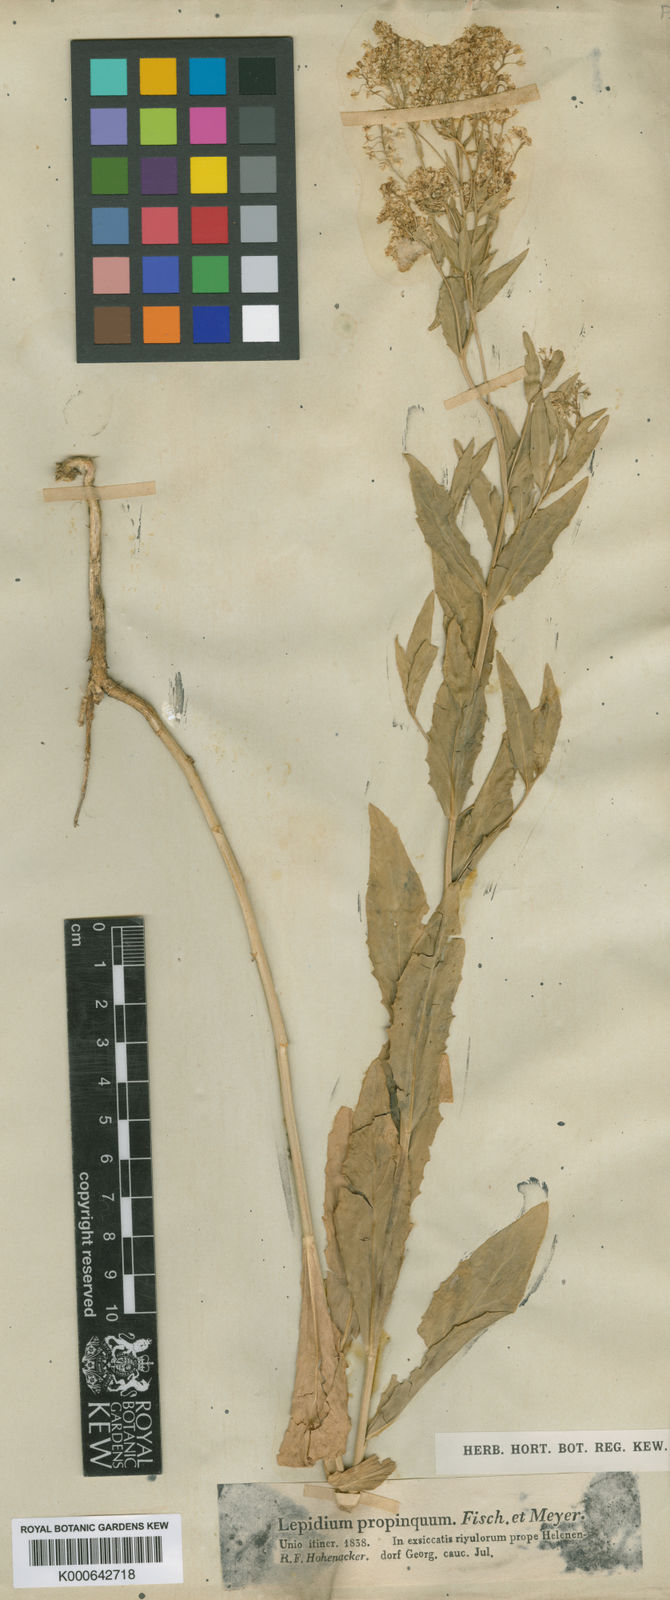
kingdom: Plantae
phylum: Tracheophyta
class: Magnoliopsida
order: Brassicales
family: Brassicaceae
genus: Lepidium
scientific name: Lepidium draba
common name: Hoary cress
